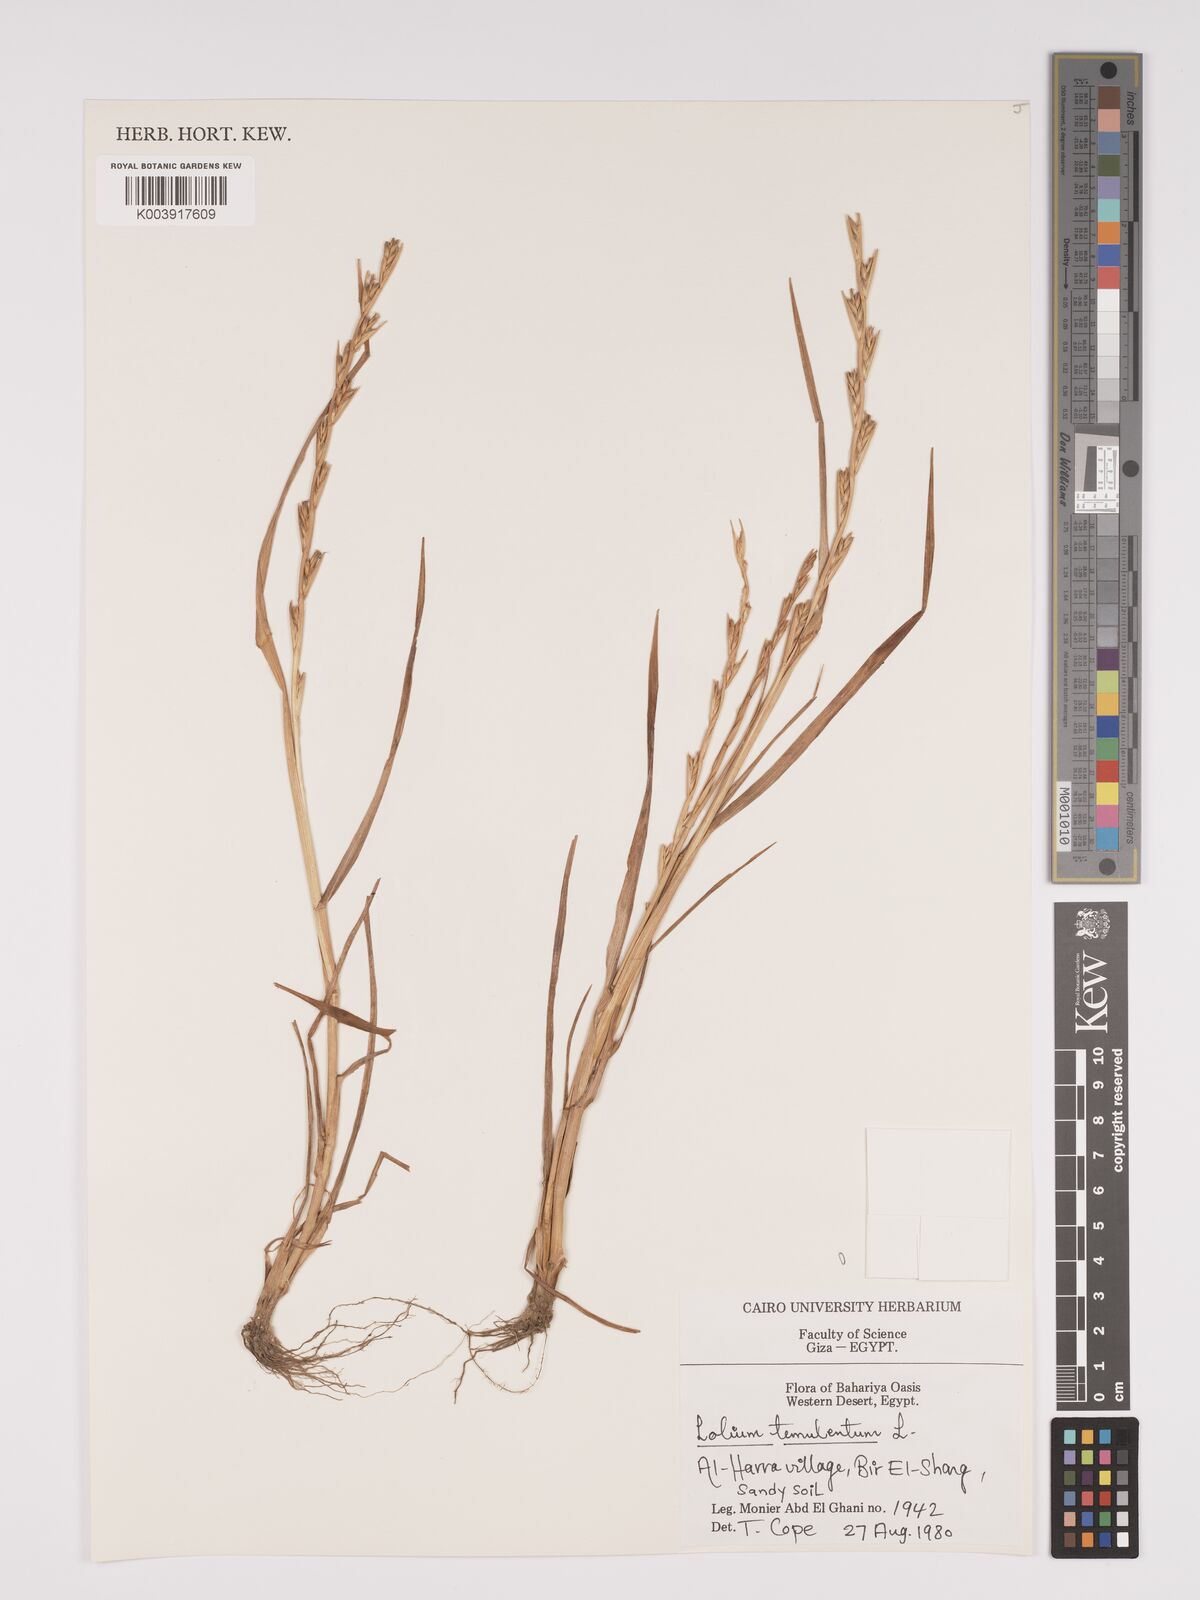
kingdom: Plantae
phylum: Tracheophyta
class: Liliopsida
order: Poales
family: Poaceae
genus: Lolium
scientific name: Lolium temulentum
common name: Darnel
